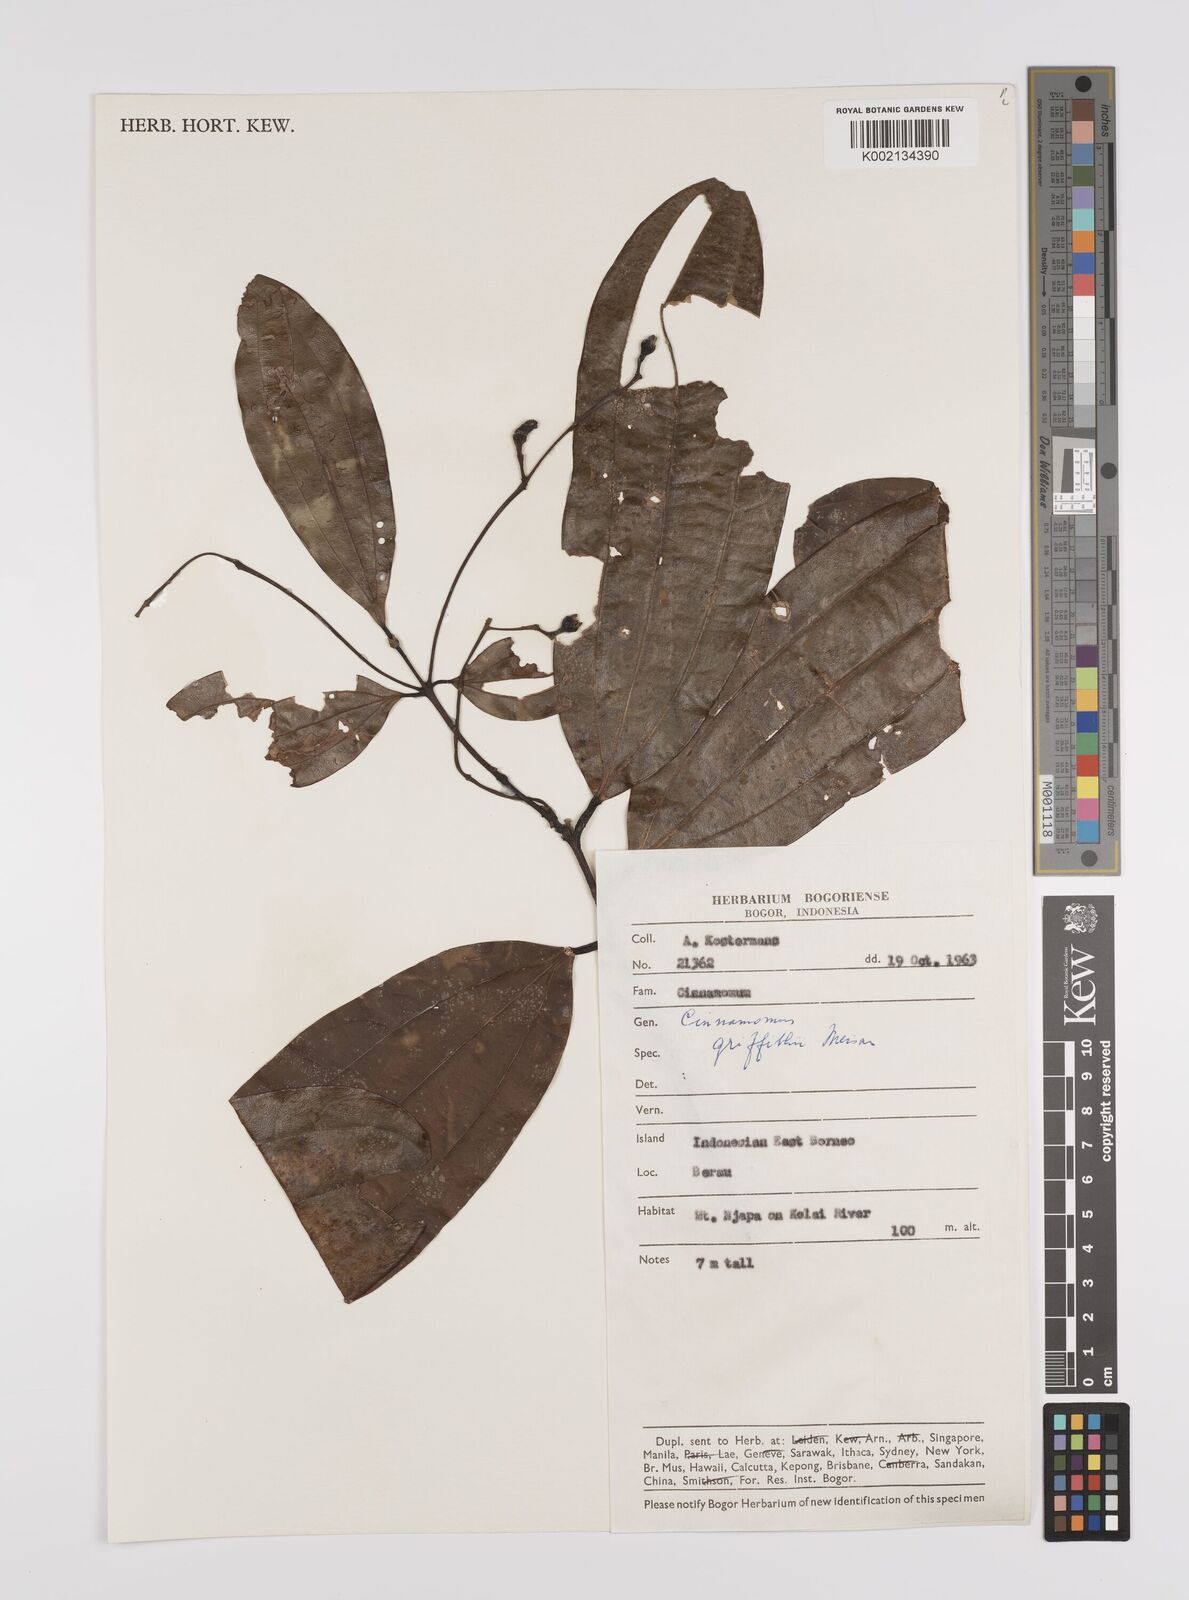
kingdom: Plantae
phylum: Tracheophyta
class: Magnoliopsida
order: Laurales
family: Lauraceae
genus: Cinnamomum
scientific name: Cinnamomum iners
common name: Wild cinnamon
